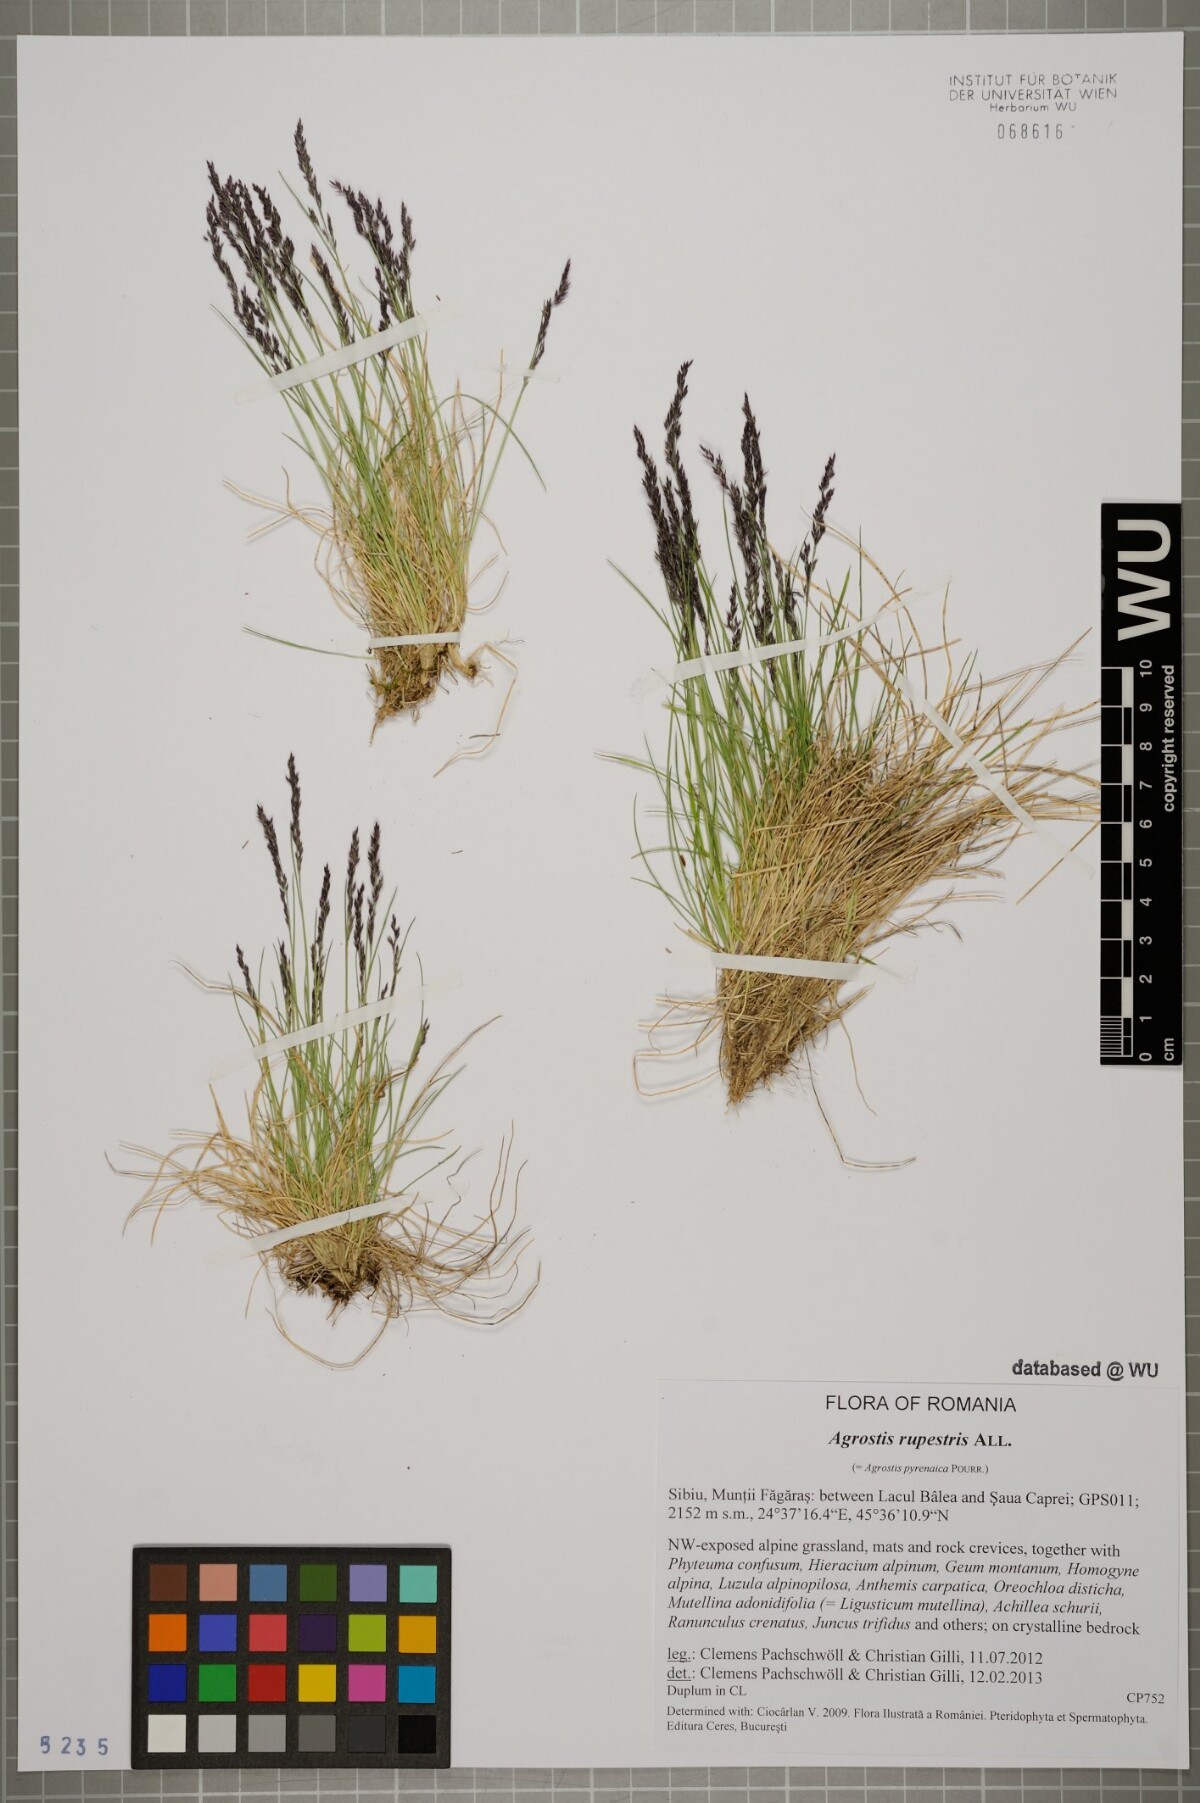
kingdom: Plantae
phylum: Tracheophyta
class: Liliopsida
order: Poales
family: Poaceae
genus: Agrostis
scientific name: Agrostis rupestris
